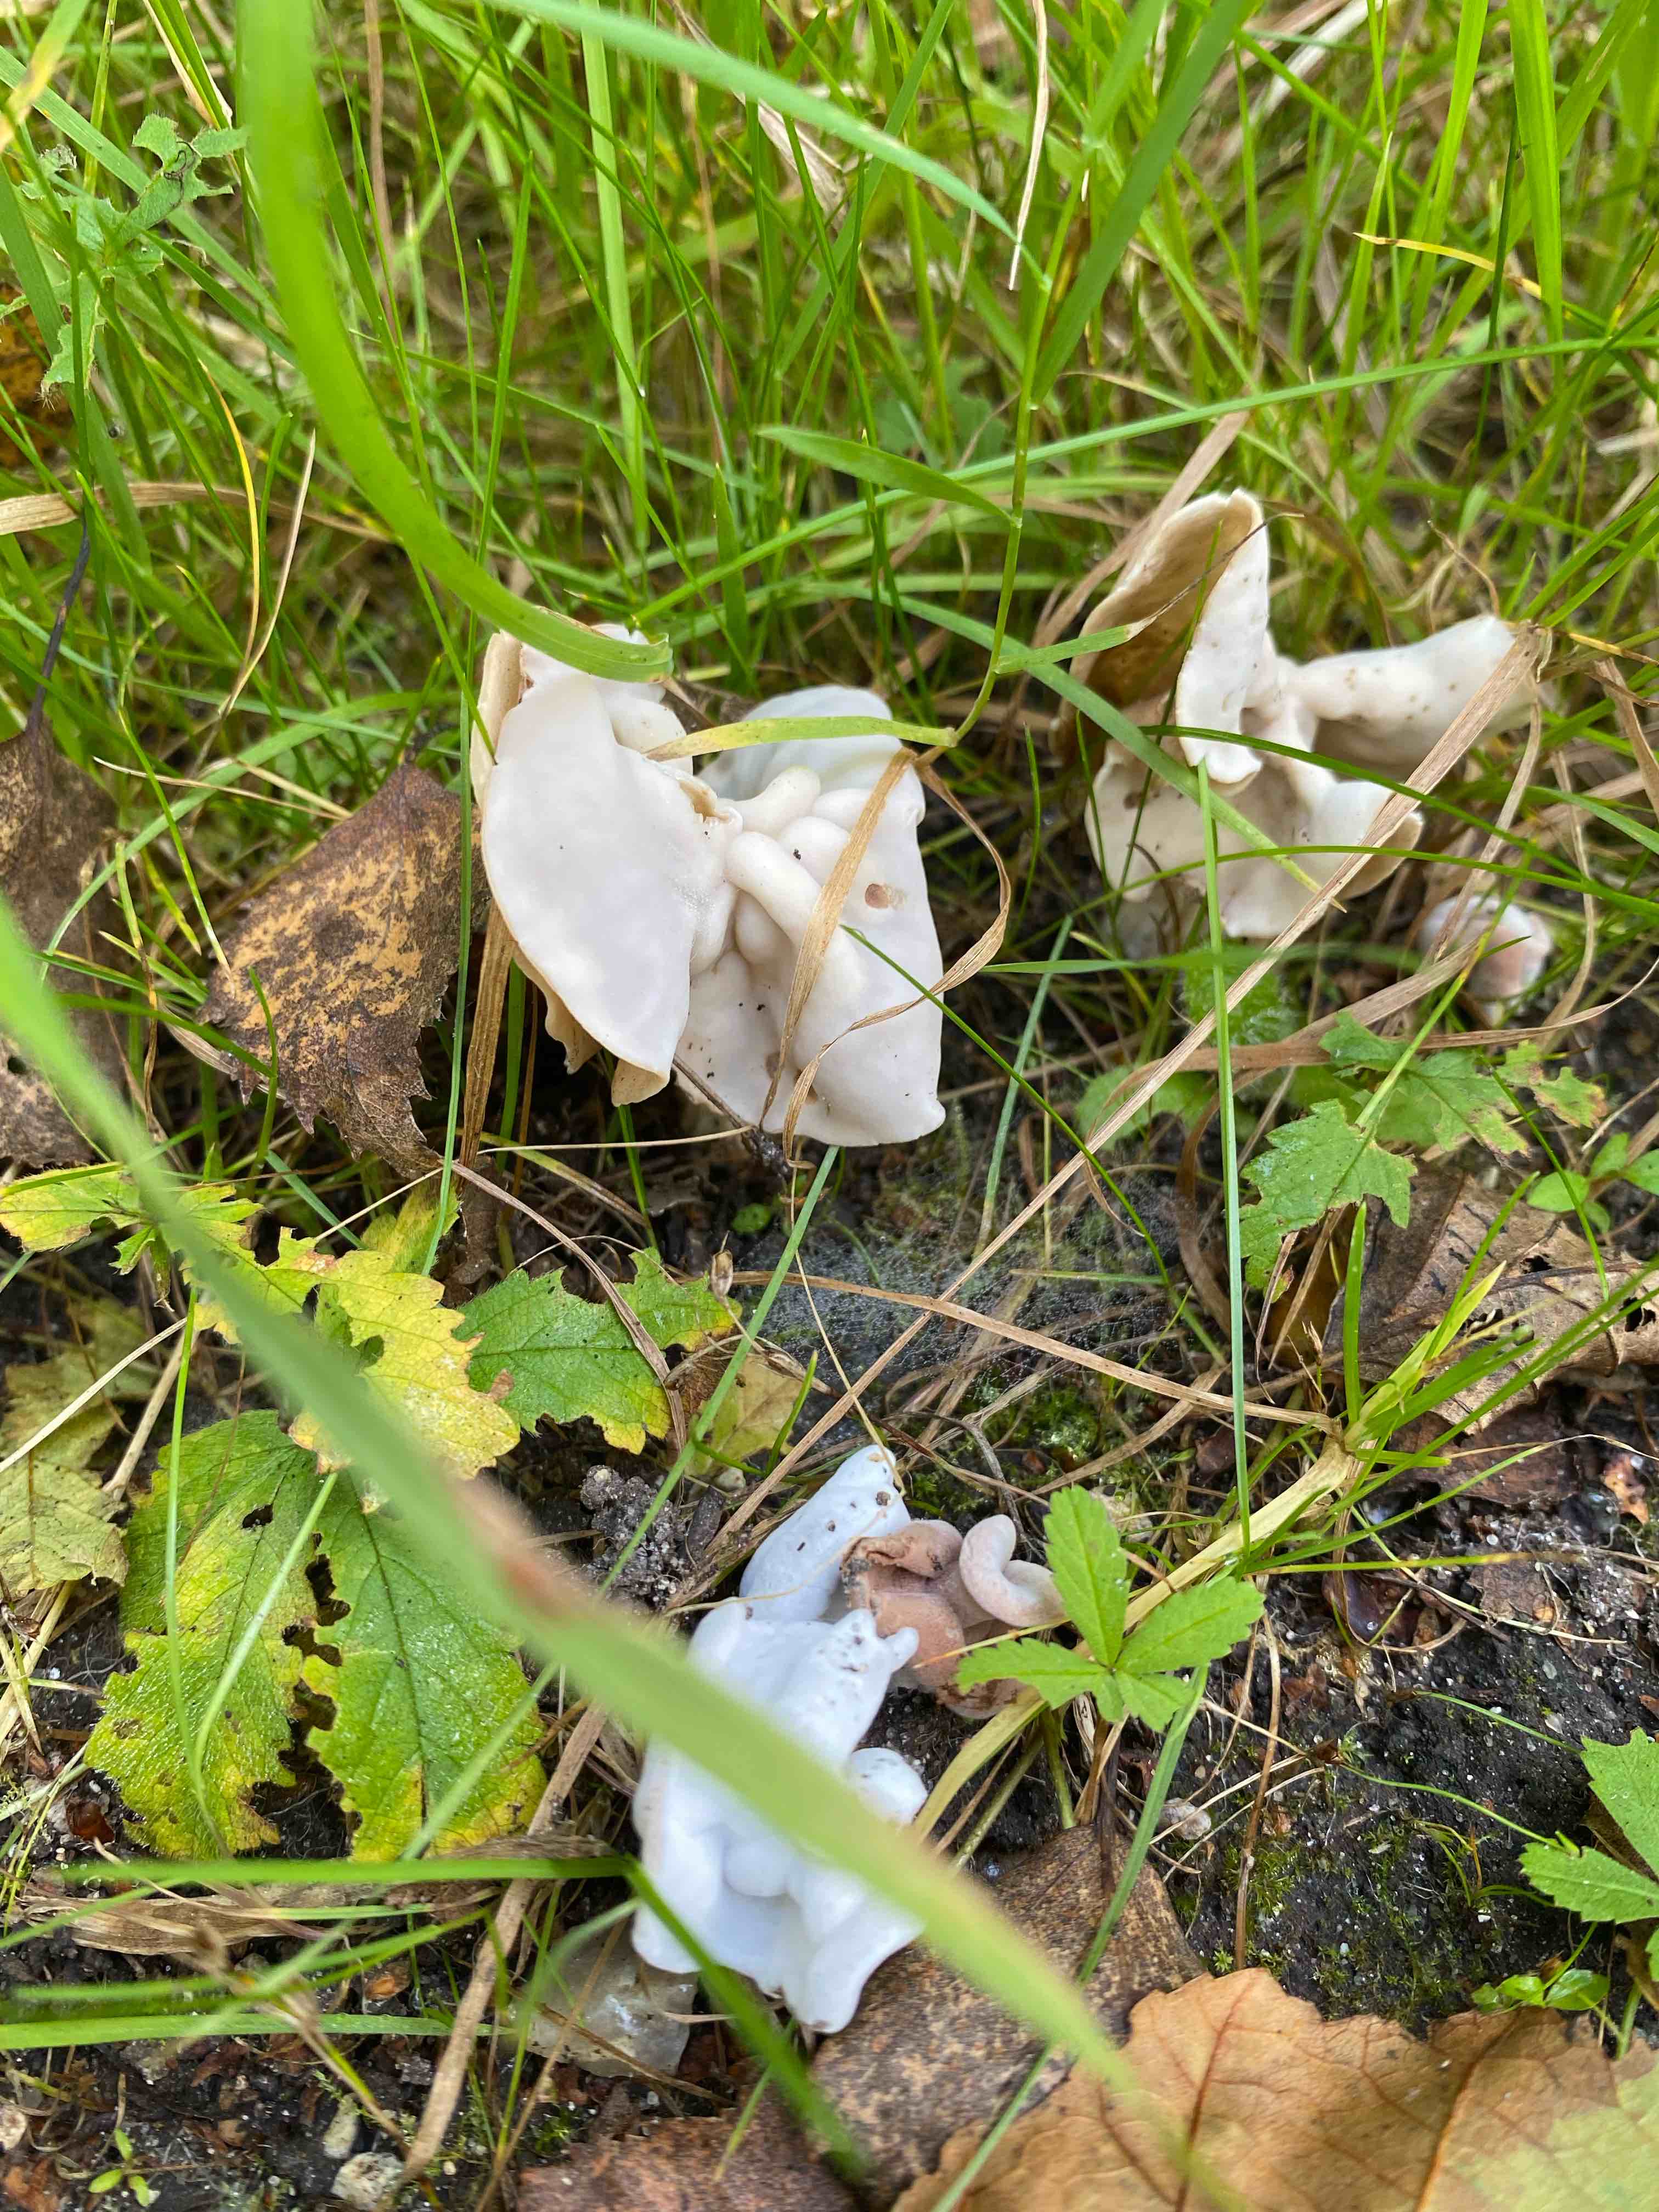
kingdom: Fungi
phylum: Ascomycota
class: Pezizomycetes
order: Pezizales
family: Helvellaceae
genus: Helvella
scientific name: Helvella crispa
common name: kruset foldhat
